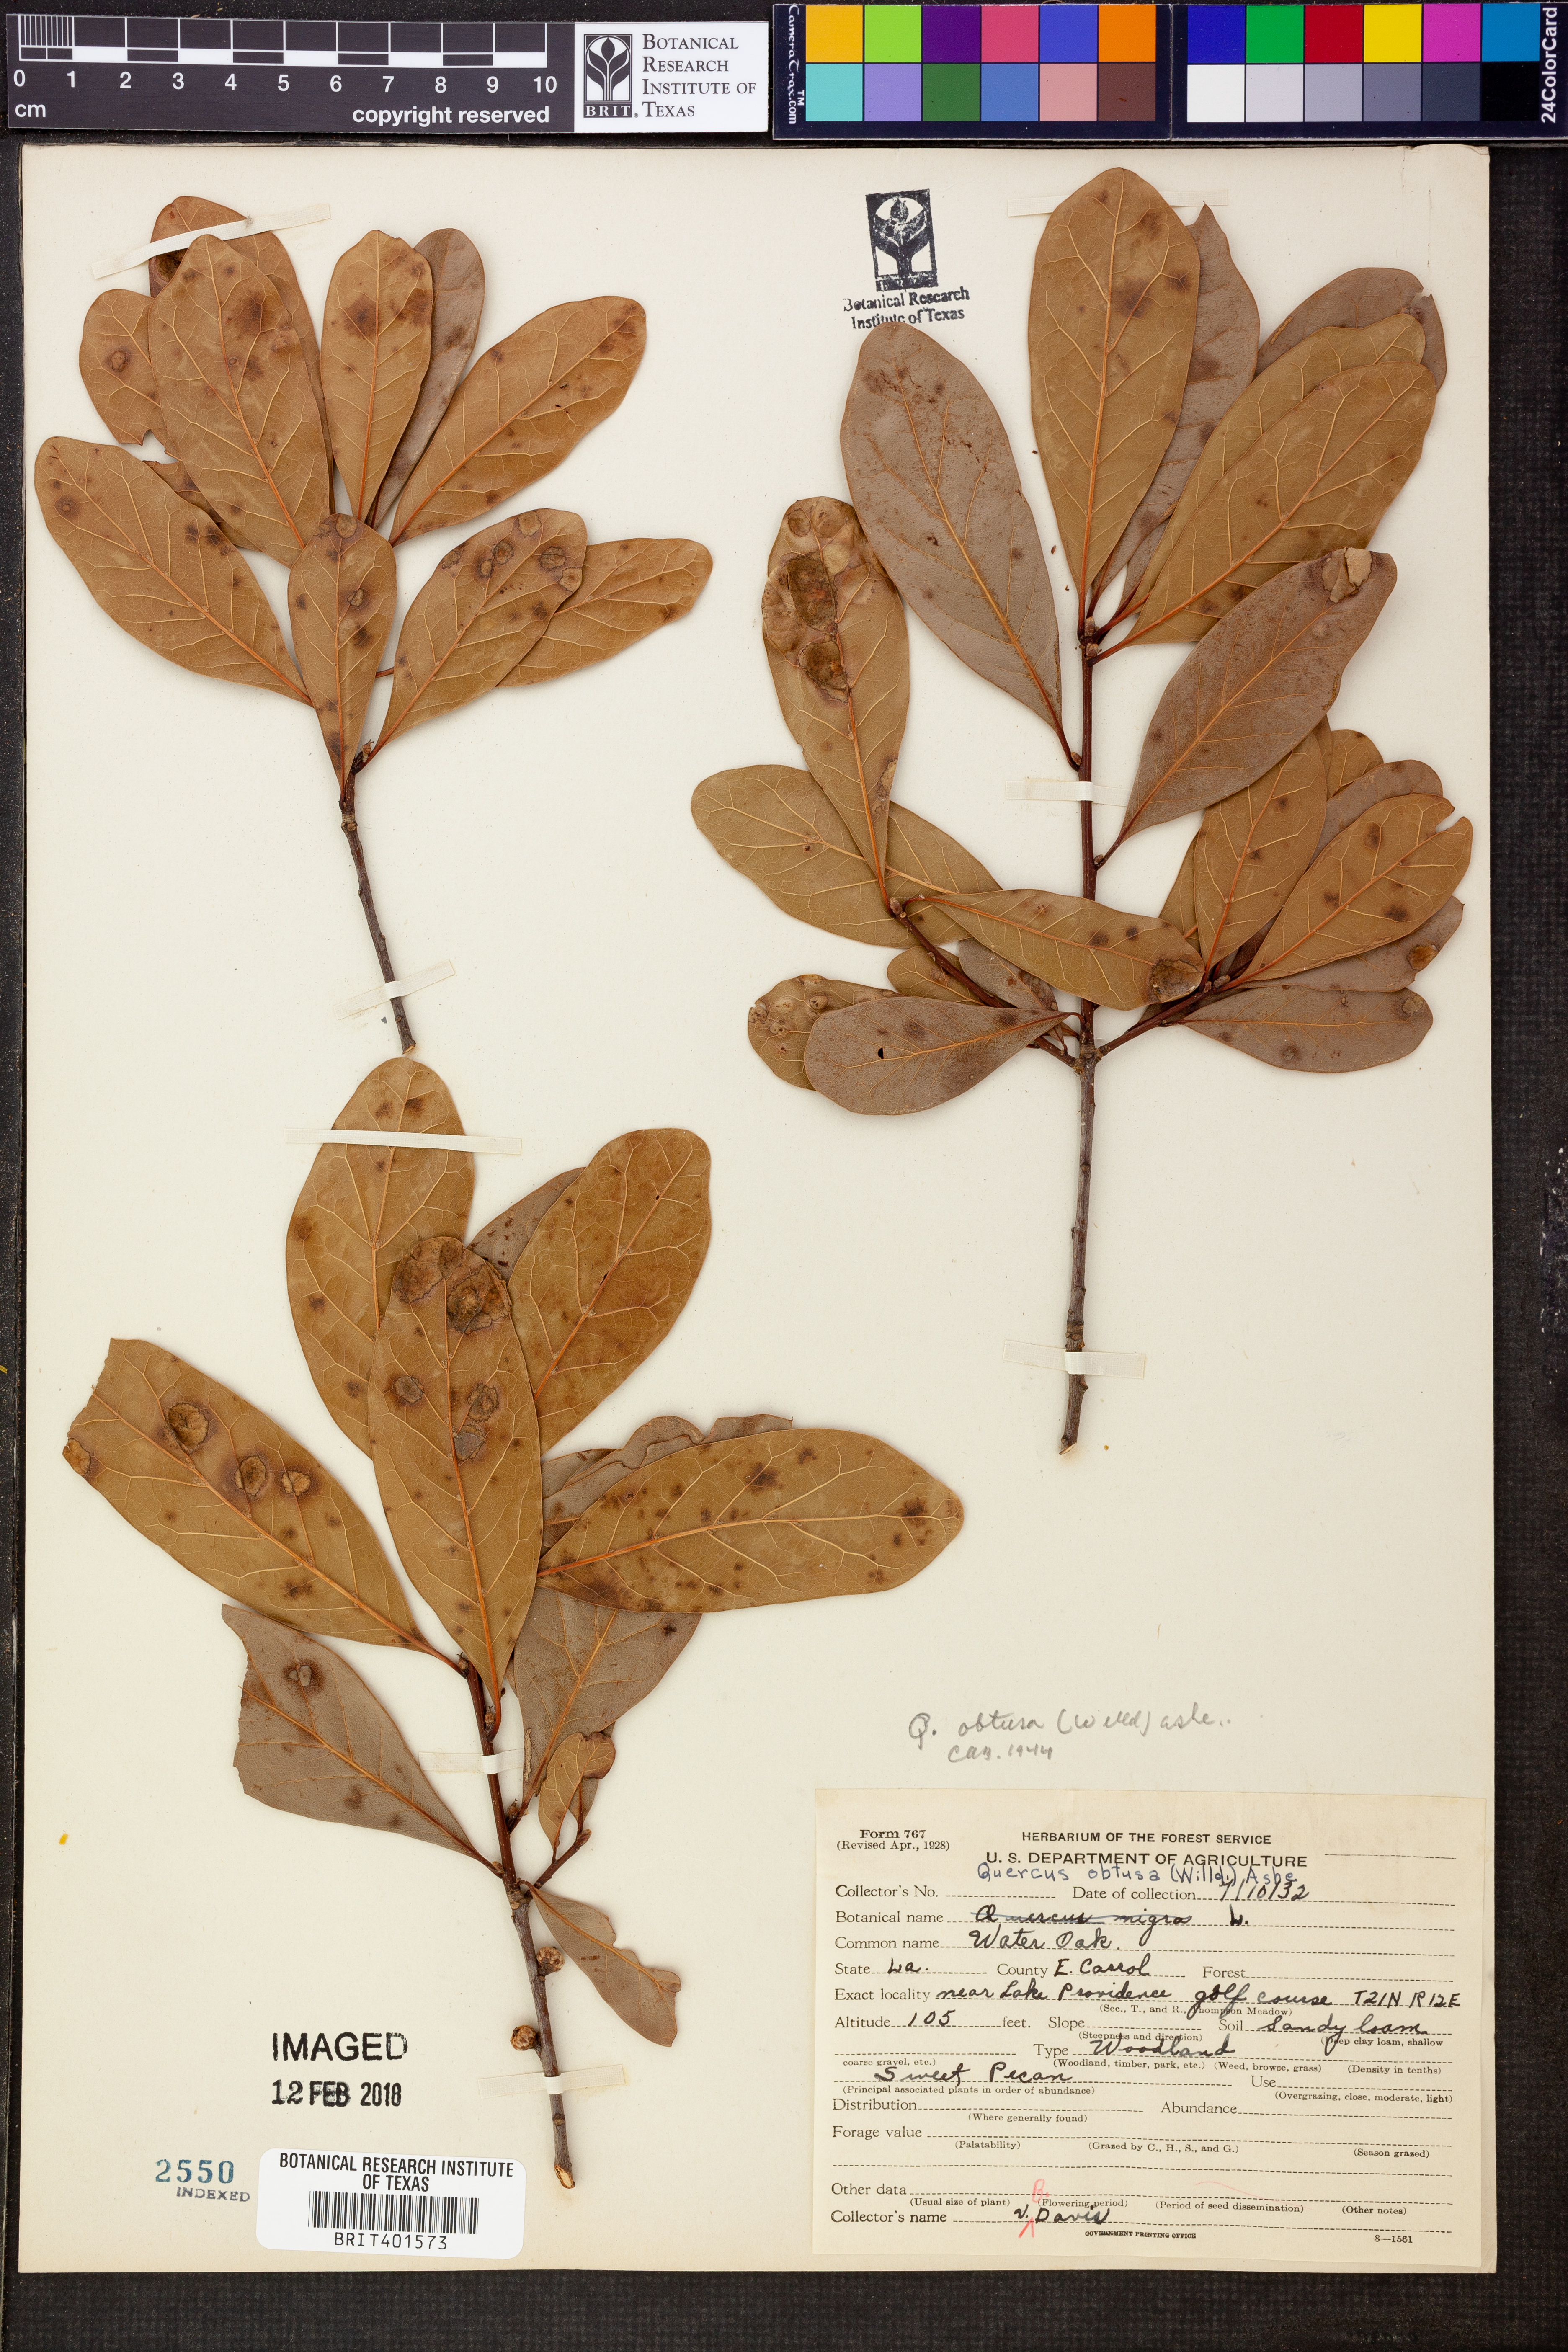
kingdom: Plantae
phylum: Tracheophyta
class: Magnoliopsida
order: Fagales
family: Fagaceae
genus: Quercus
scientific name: Quercus laurifolia
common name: Swamp laurel oak
